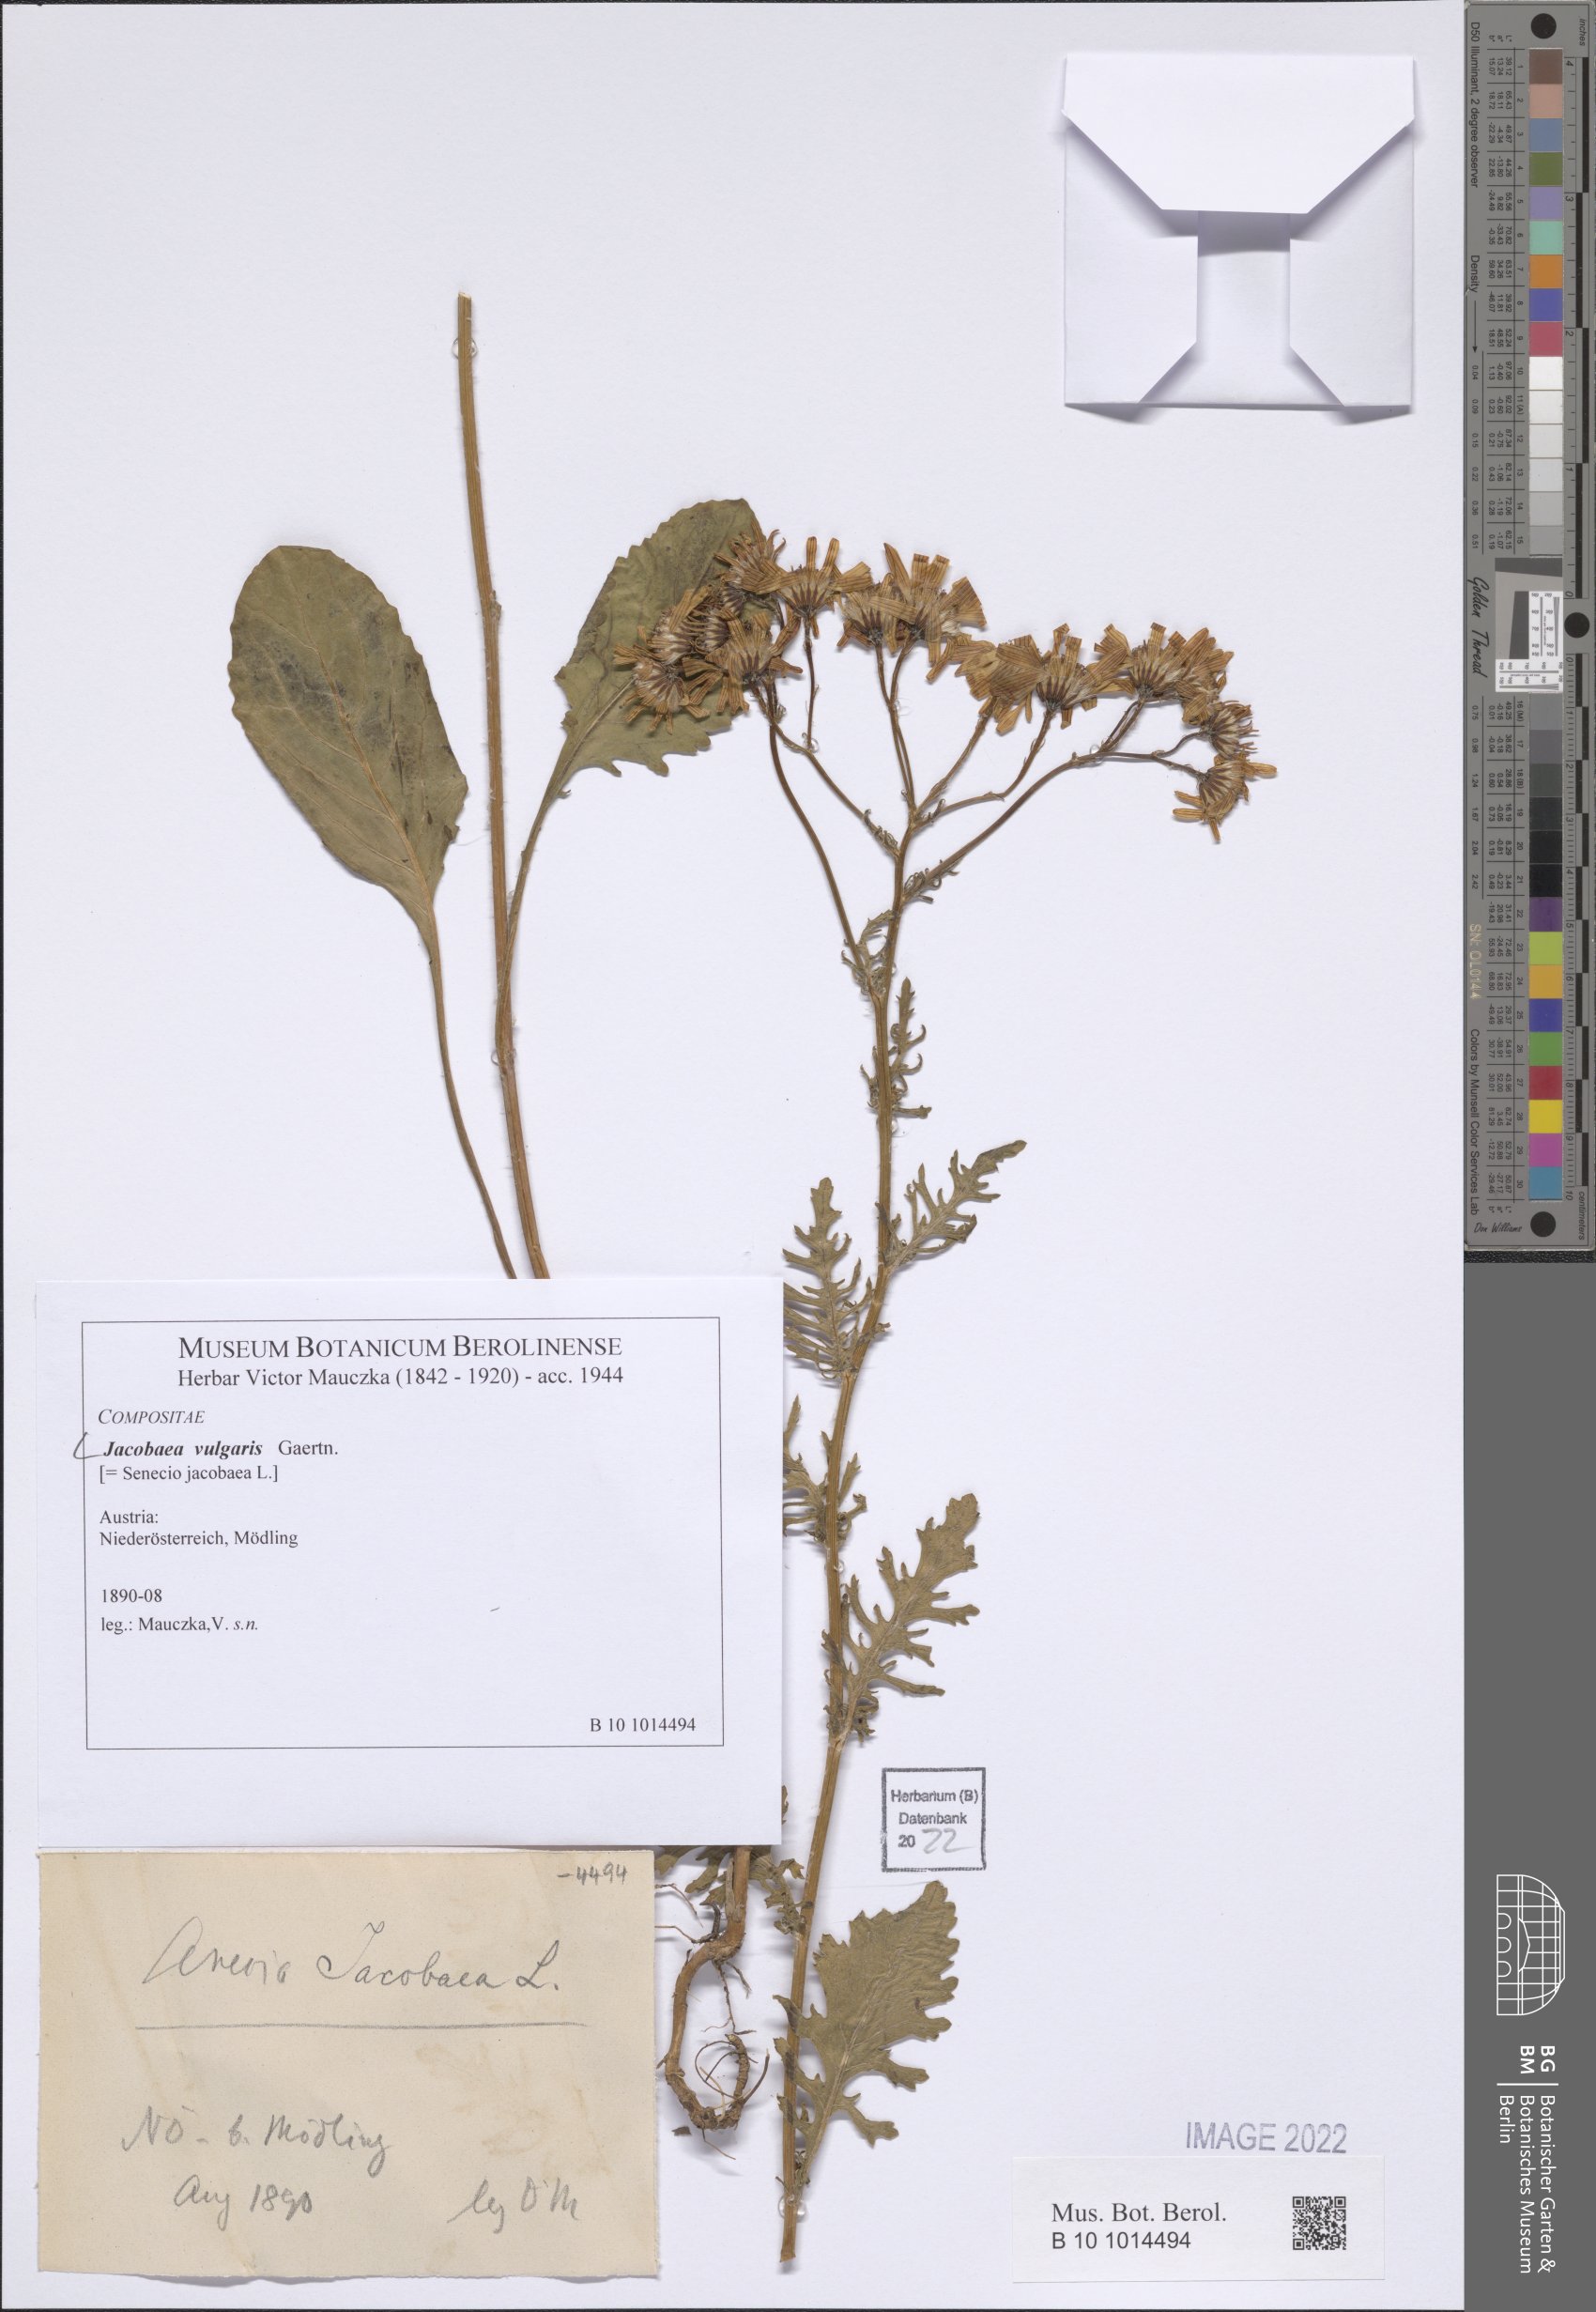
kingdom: Plantae
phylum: Tracheophyta
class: Magnoliopsida
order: Asterales
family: Asteraceae
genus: Jacobaea
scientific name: Jacobaea vulgaris
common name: Stinking willie
